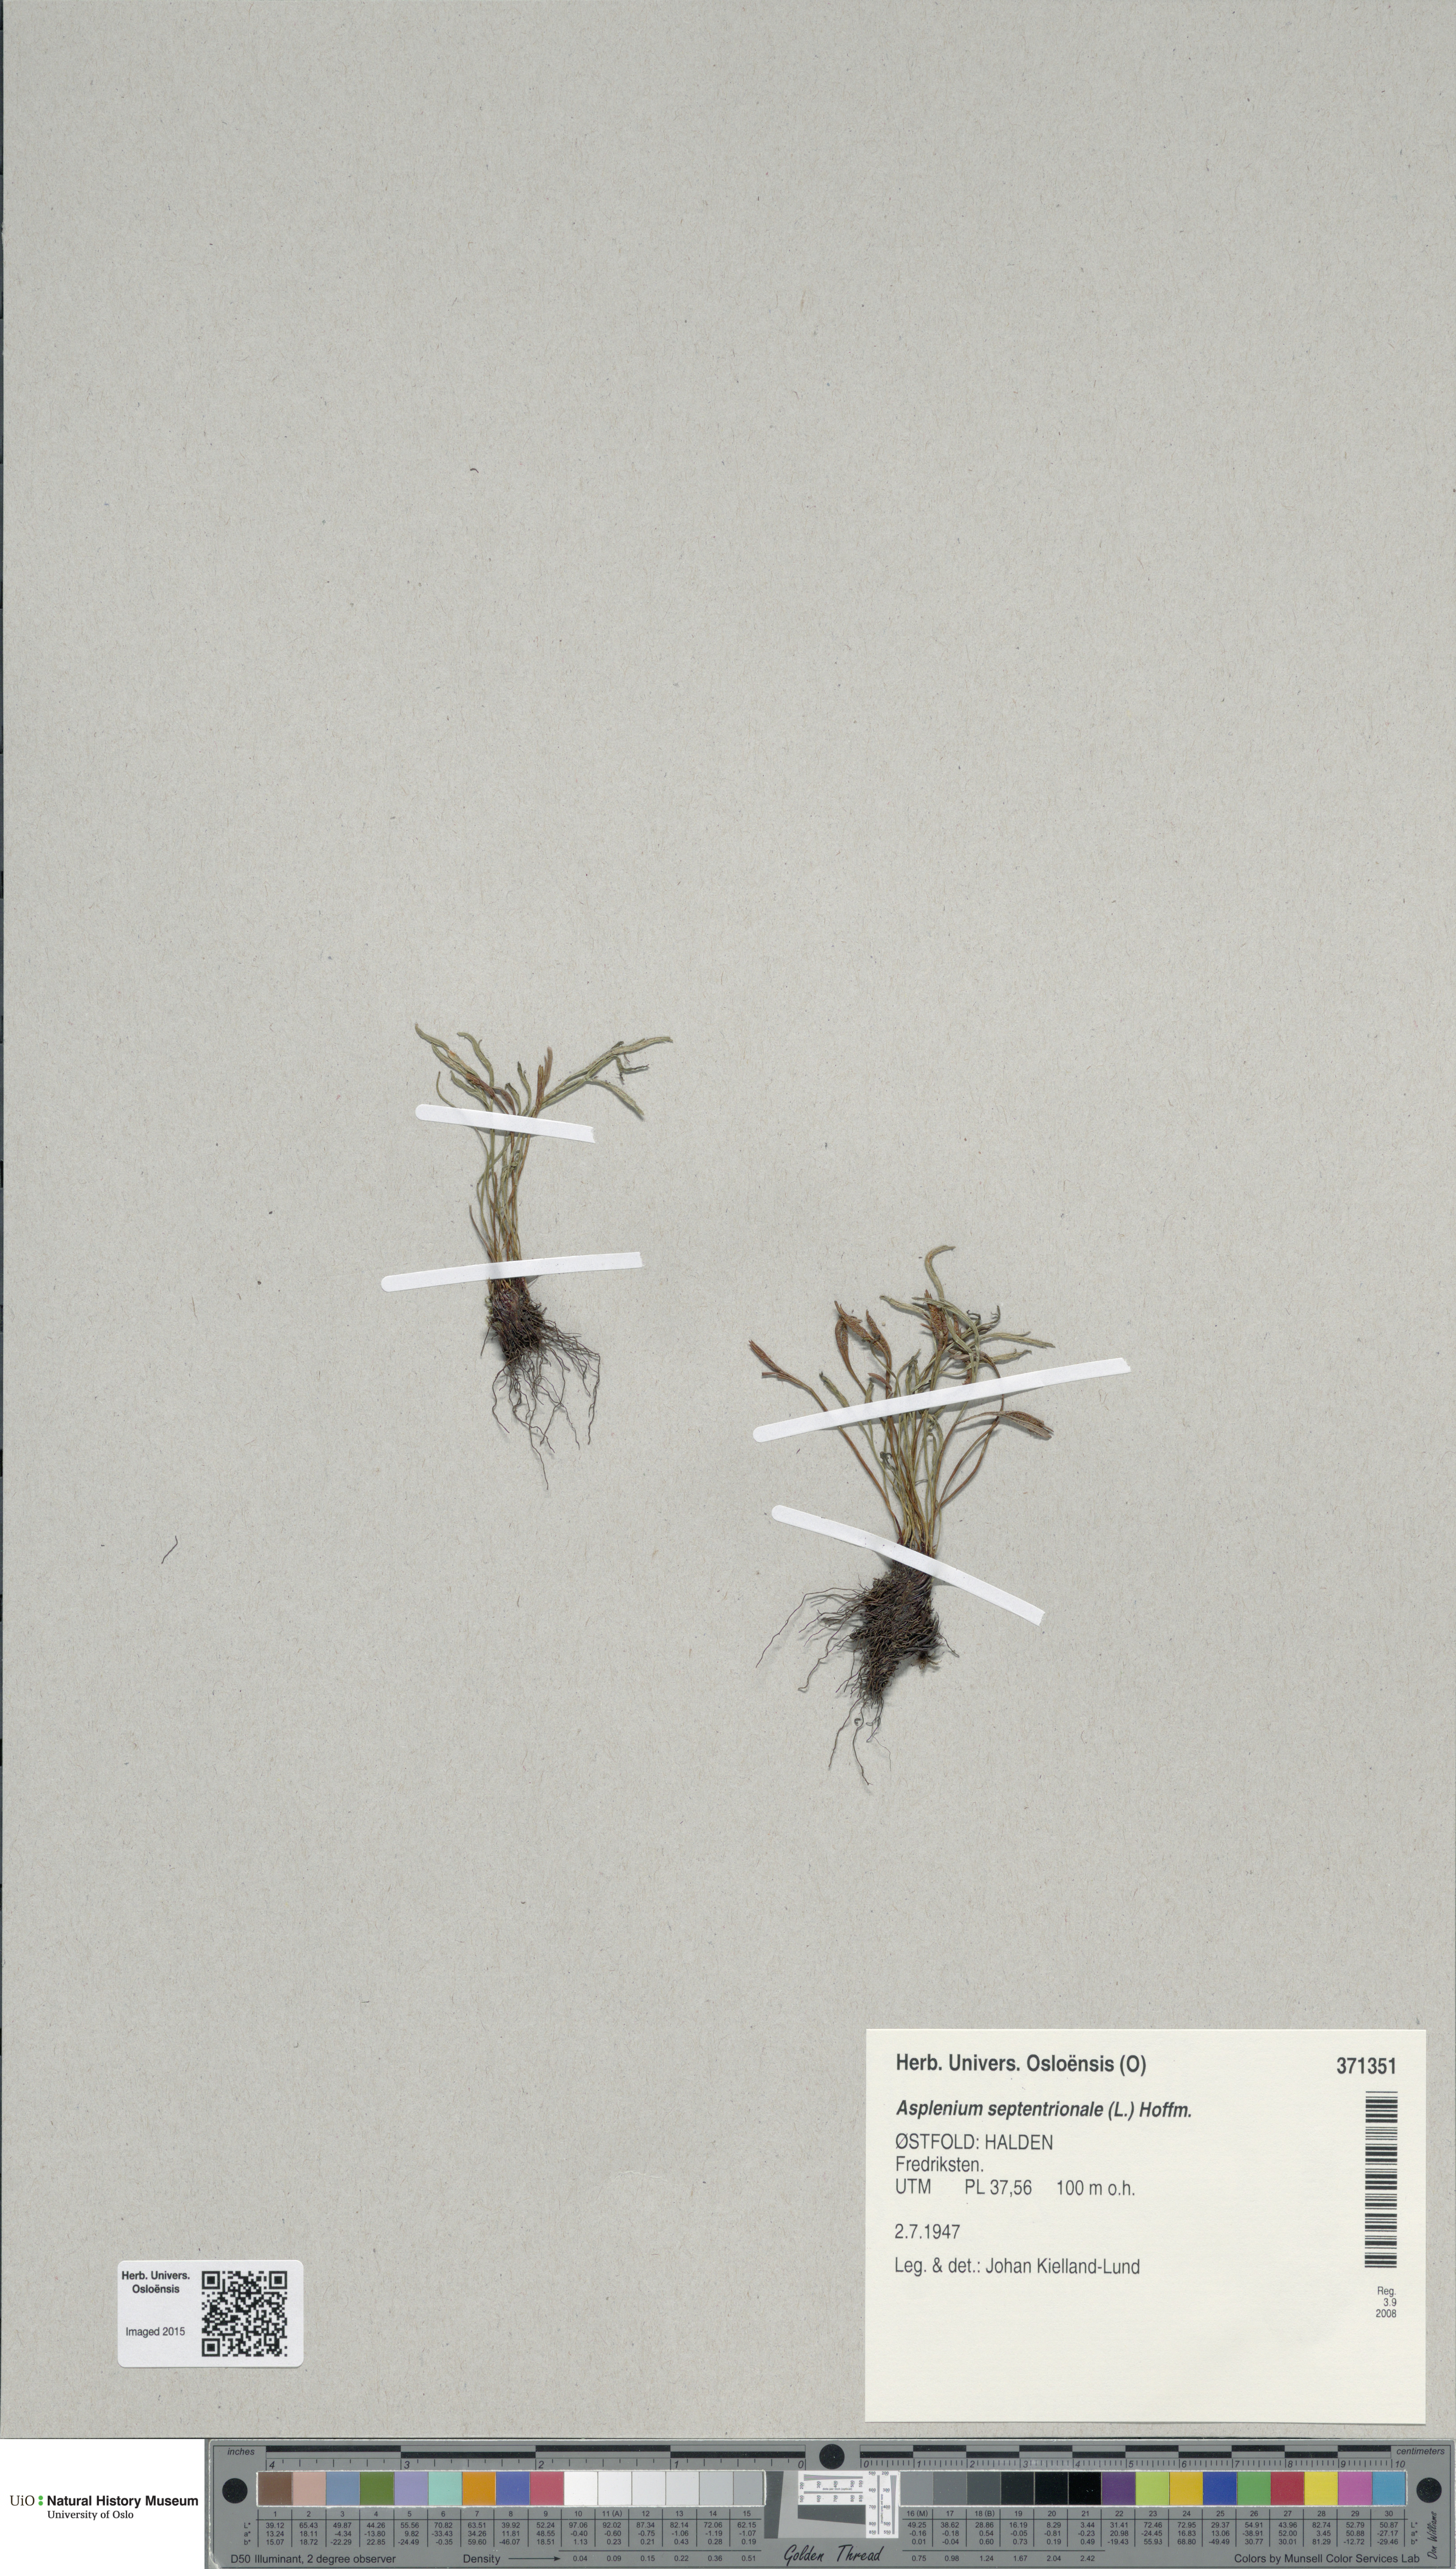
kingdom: Plantae
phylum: Tracheophyta
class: Polypodiopsida
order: Polypodiales
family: Aspleniaceae
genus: Asplenium
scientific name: Asplenium septentrionale
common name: Forked spleenwort
